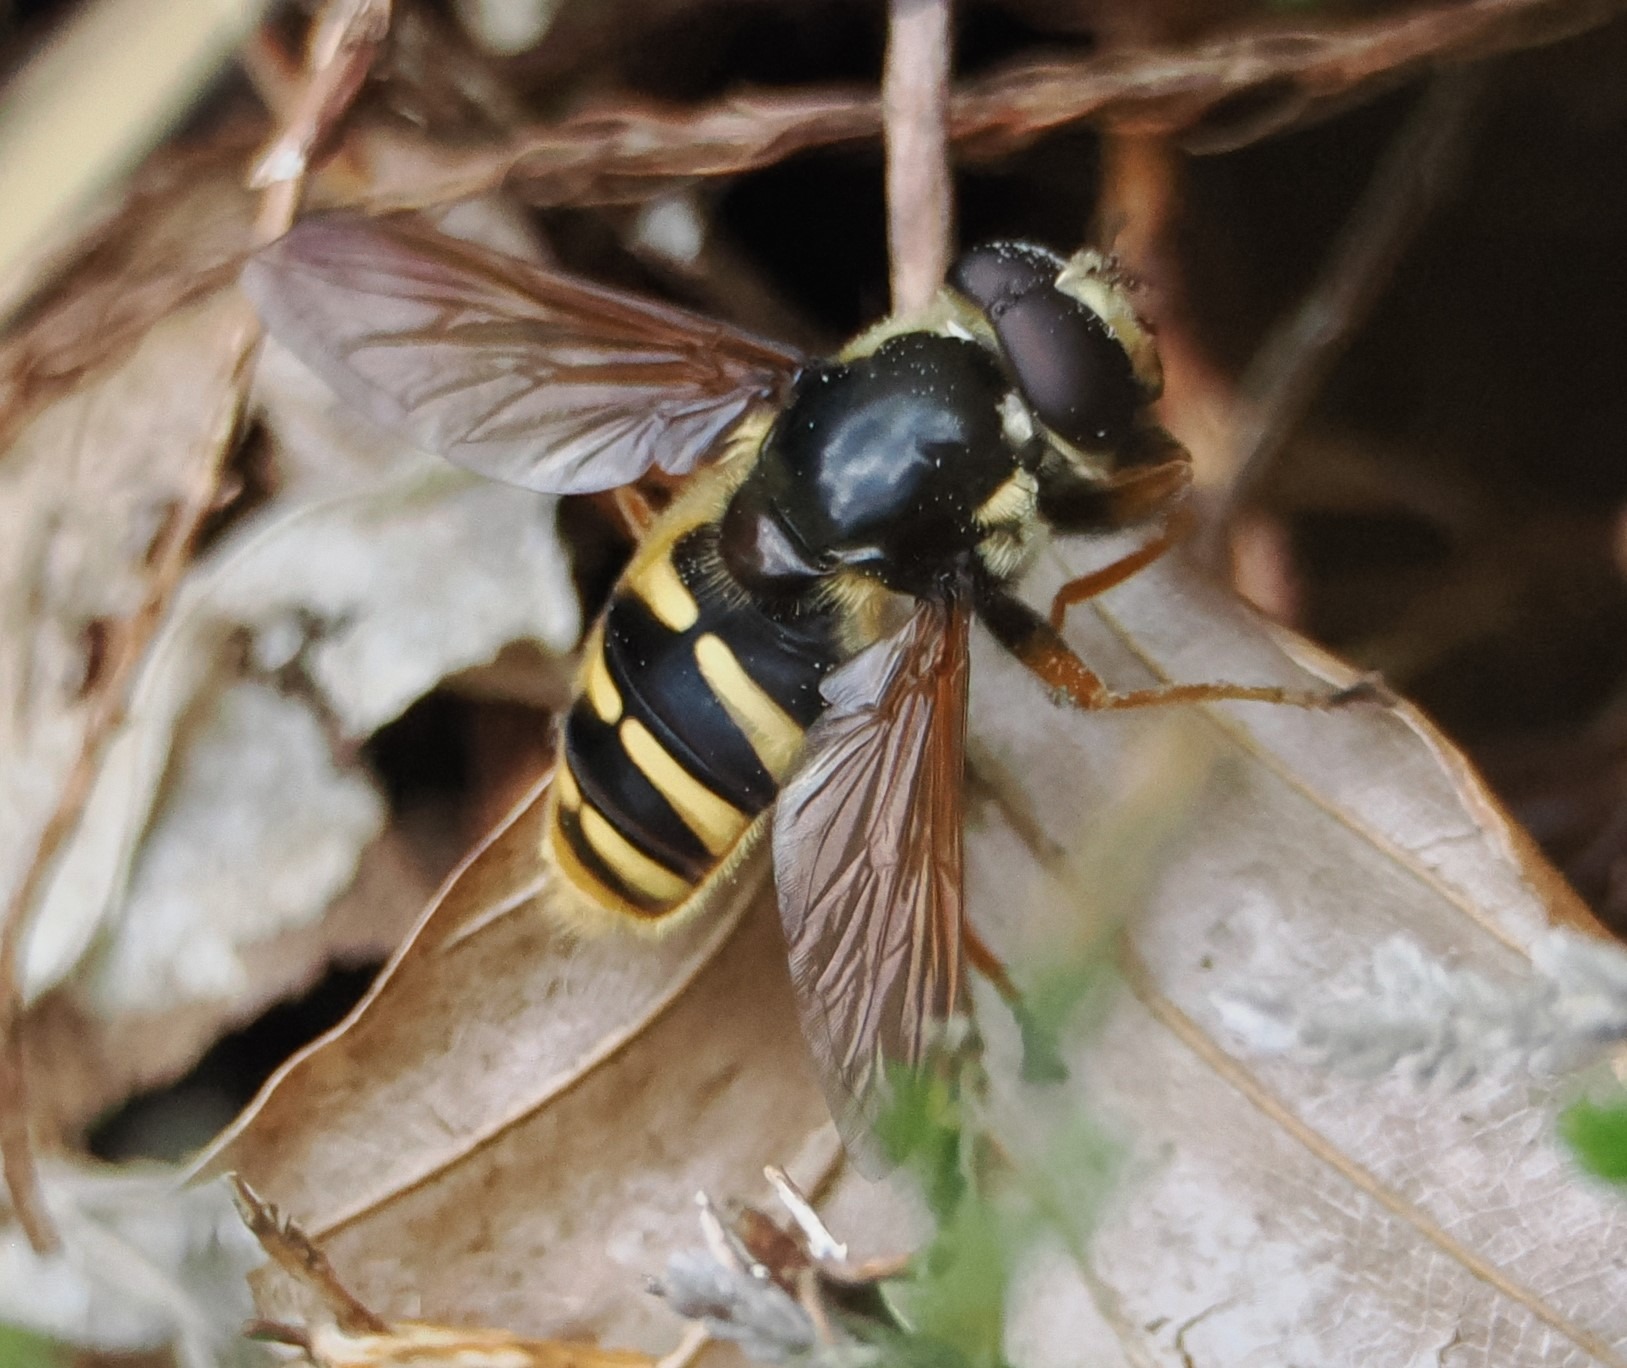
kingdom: Animalia
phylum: Arthropoda
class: Insecta
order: Diptera
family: Syrphidae
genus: Sericomyia
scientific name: Sericomyia silentis
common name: Tørve-silkesvirreflue
